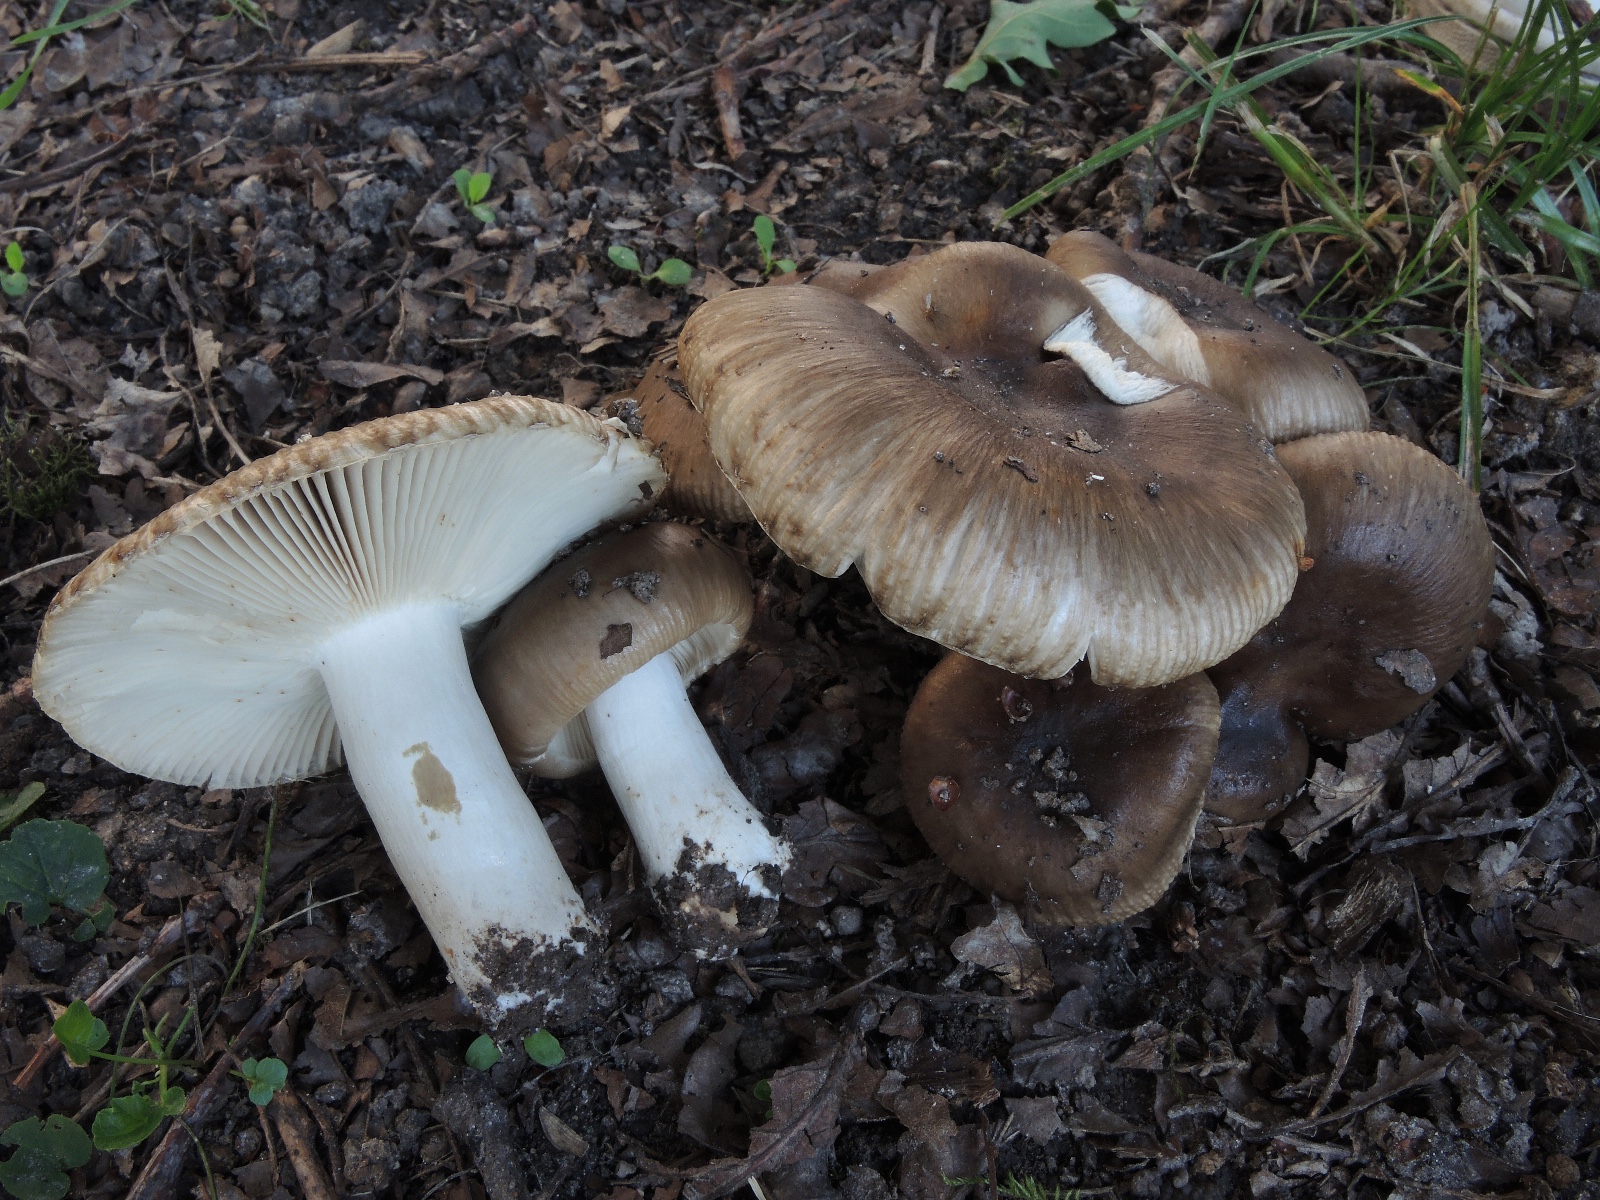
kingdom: Fungi
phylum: Basidiomycota
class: Agaricomycetes
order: Russulales
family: Russulaceae
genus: Russula
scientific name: Russula sororia
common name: brun kam-skørhat
